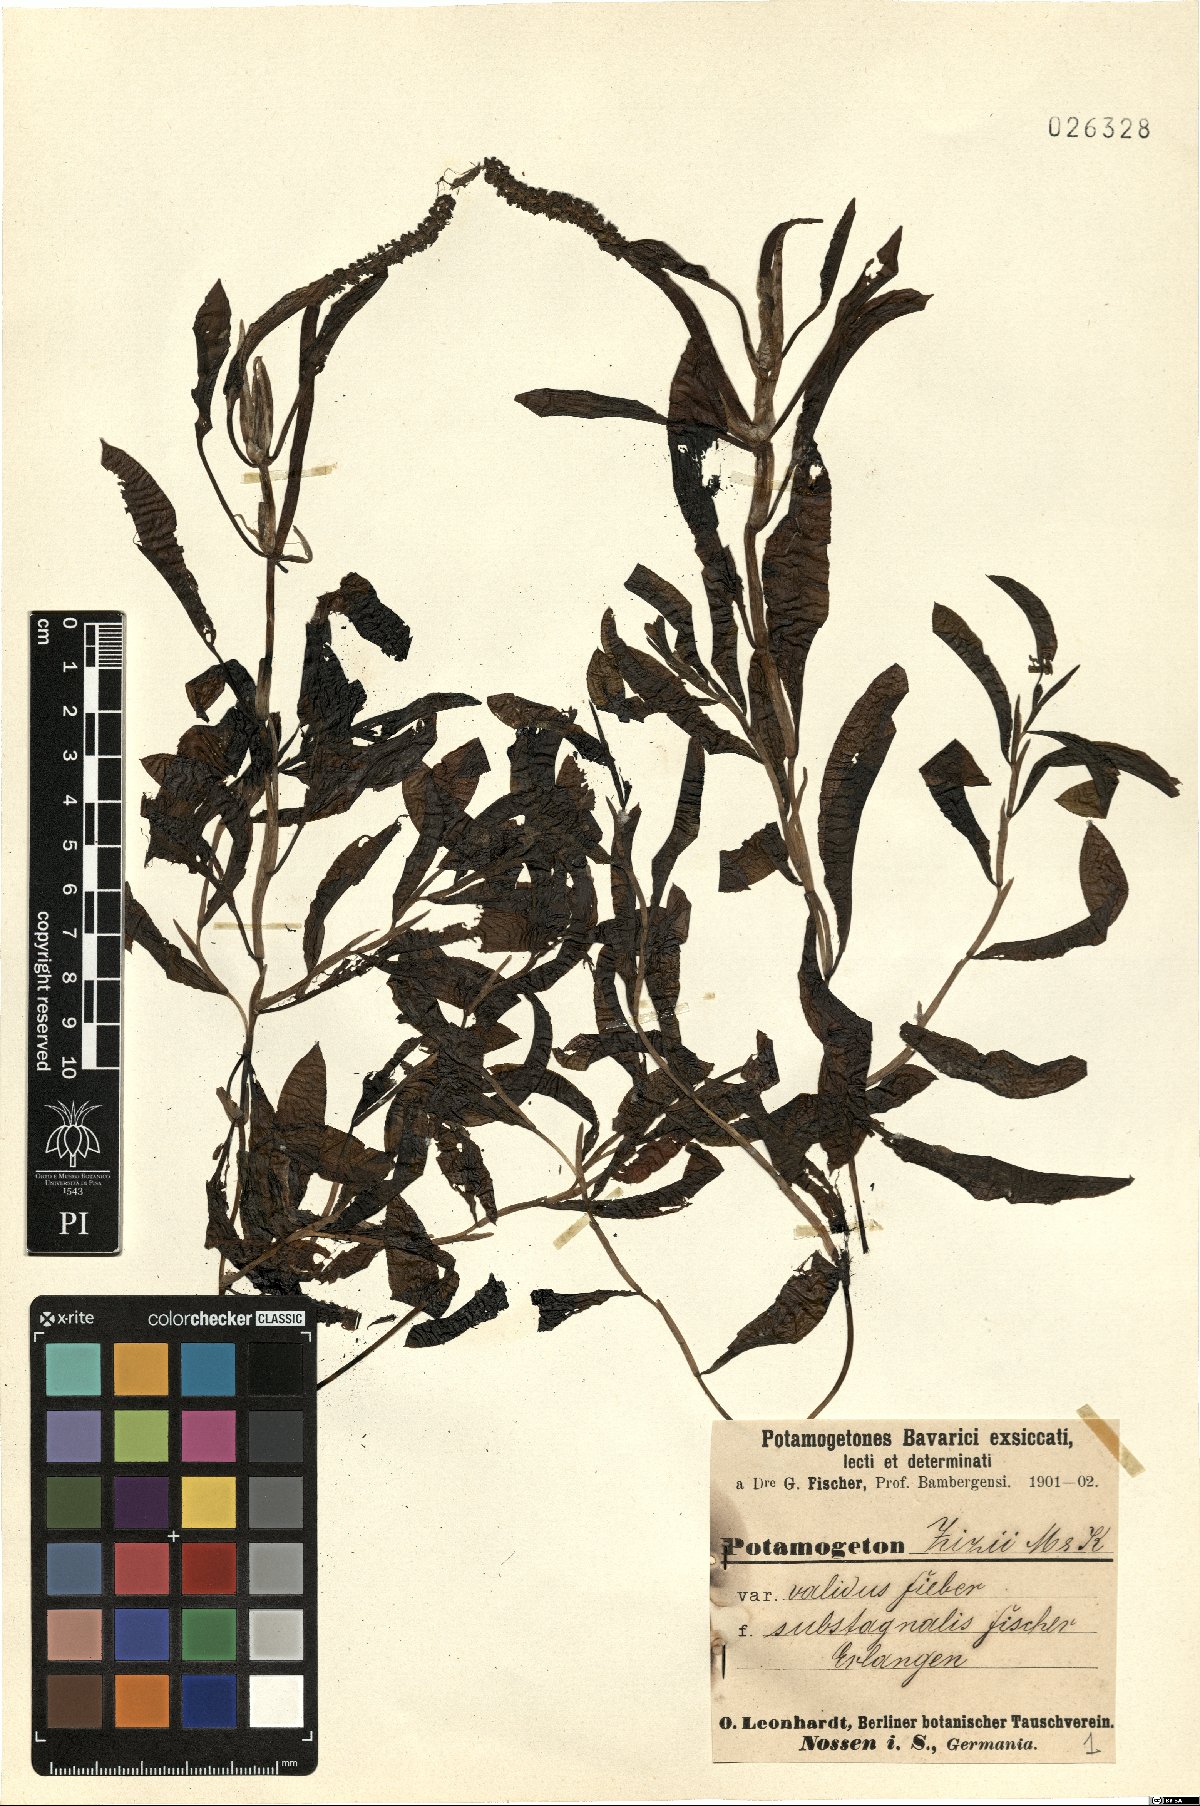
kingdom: Plantae
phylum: Tracheophyta
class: Liliopsida
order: Alismatales
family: Potamogetonaceae
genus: Potamogeton
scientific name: Potamogeton angustifolius
